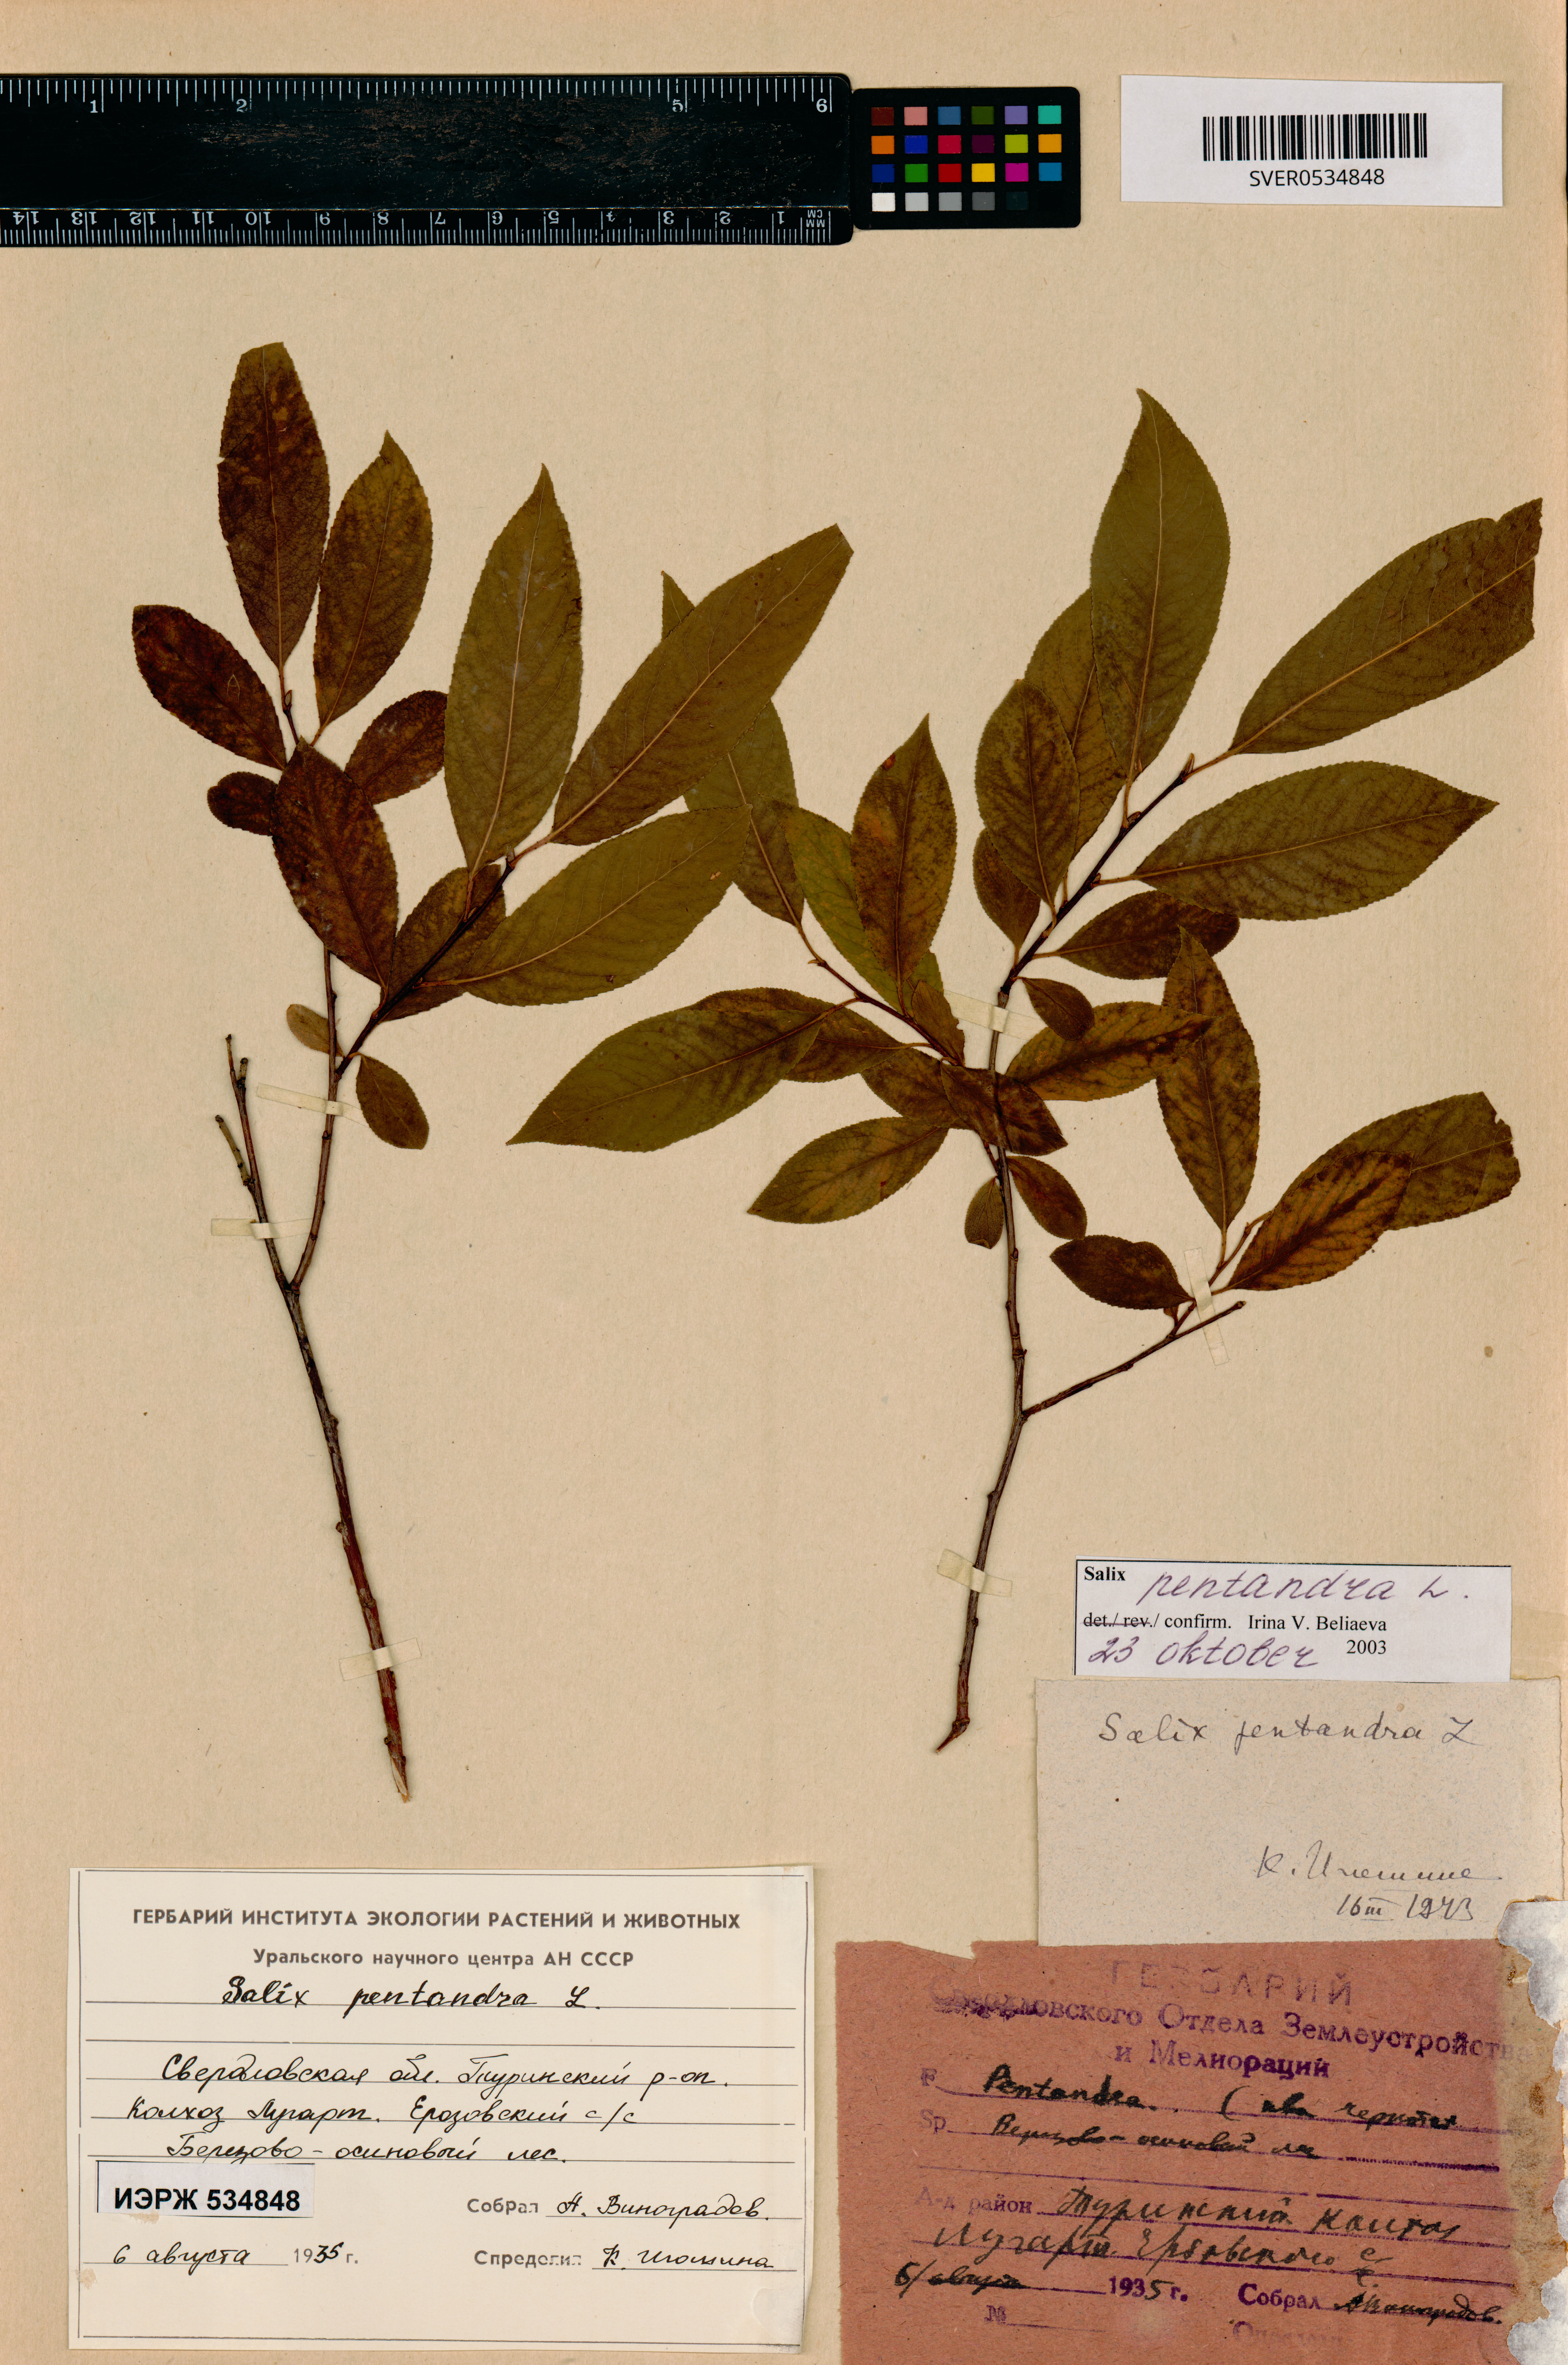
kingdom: Plantae
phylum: Tracheophyta
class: Magnoliopsida
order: Malpighiales
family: Salicaceae
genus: Salix
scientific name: Salix pentandra
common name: Bay willow
